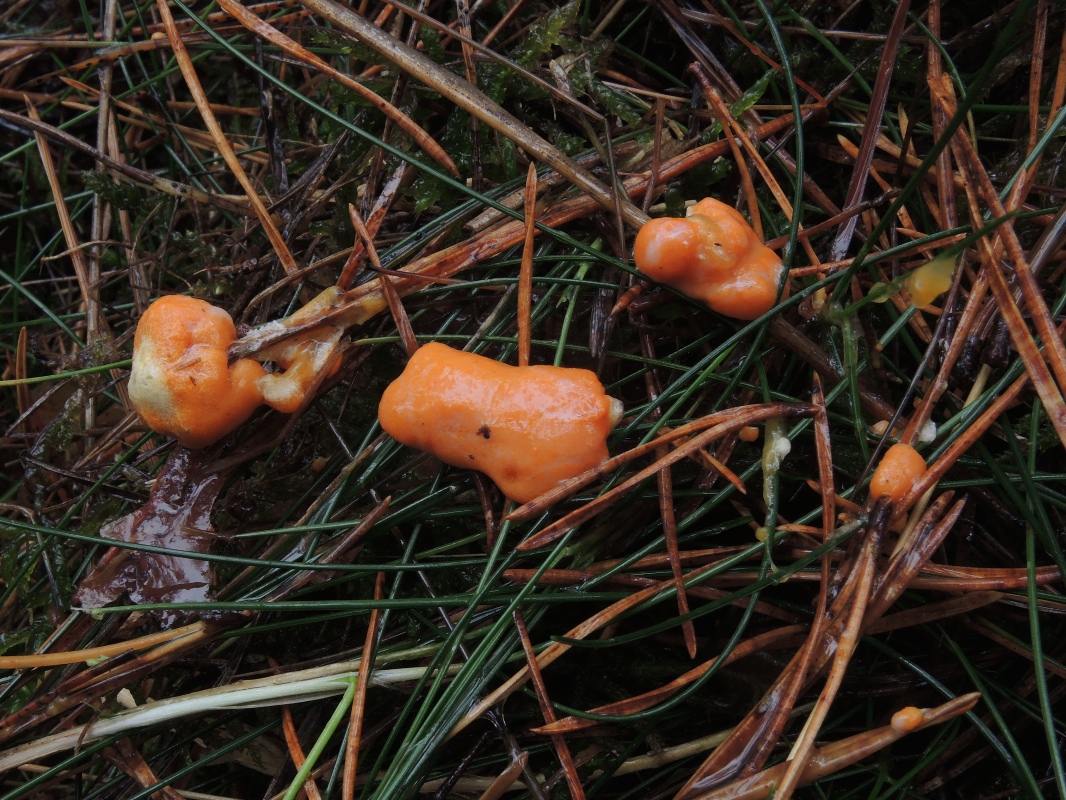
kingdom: Protozoa
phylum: Mycetozoa
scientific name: Mycetozoa
